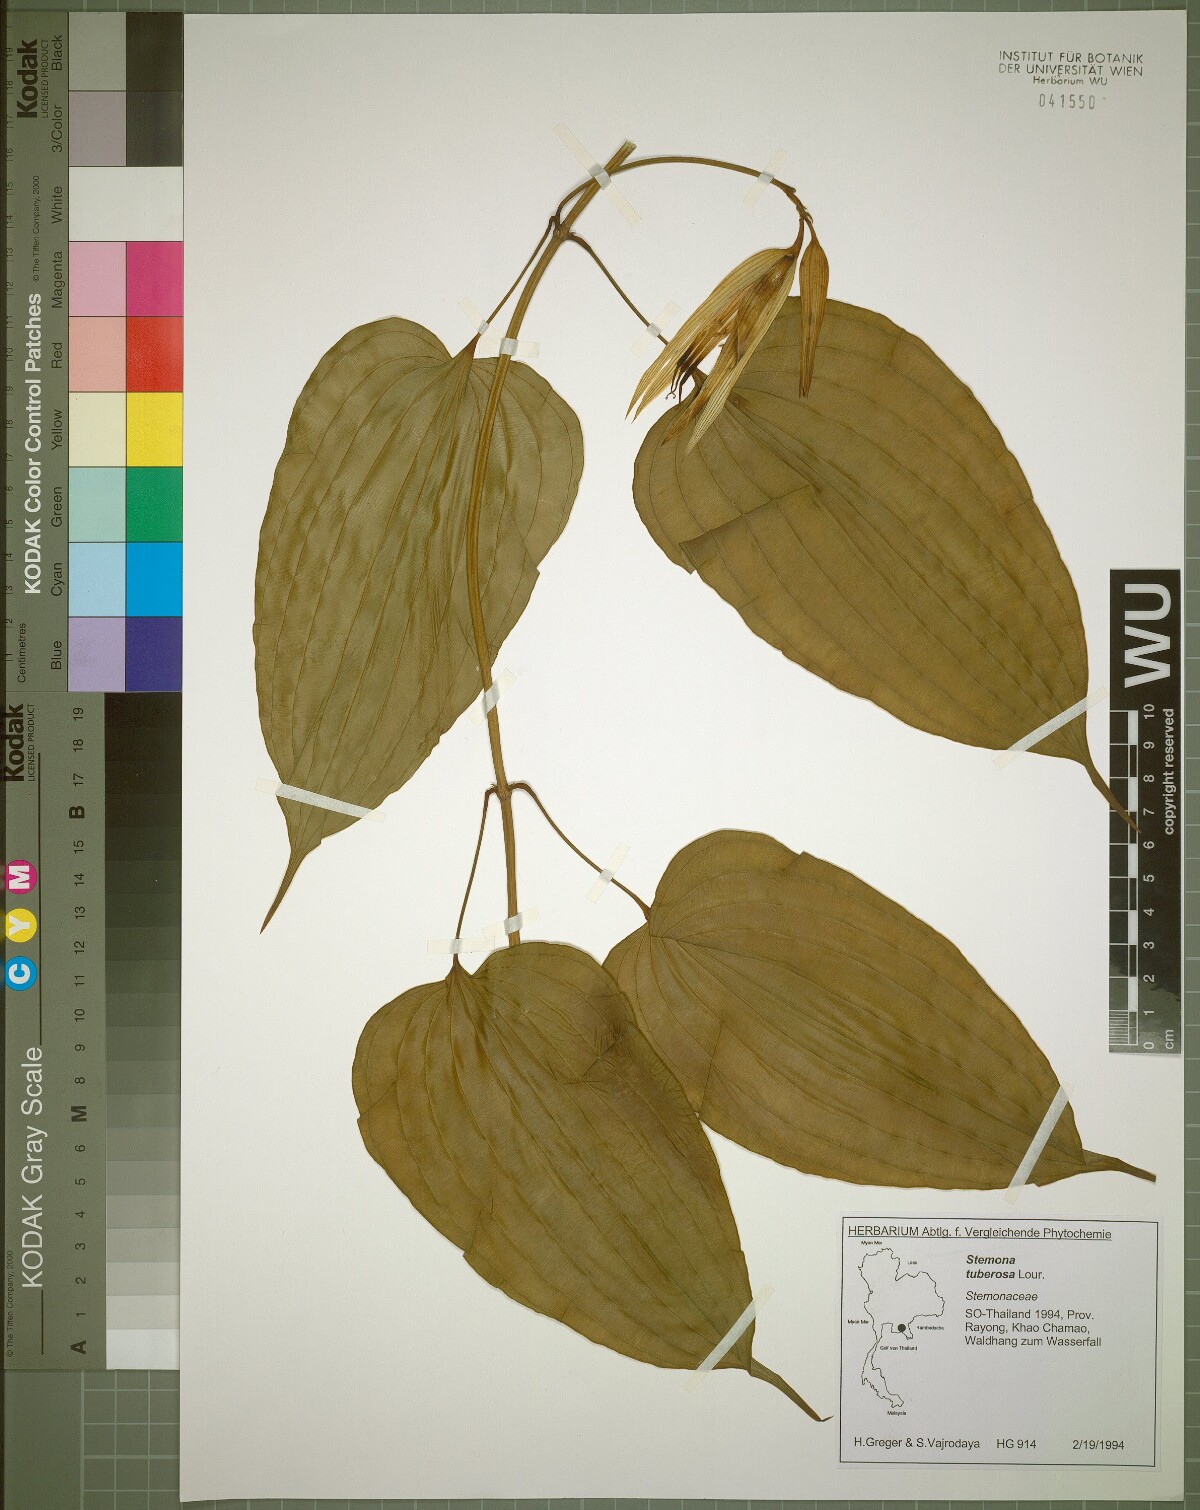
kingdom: Plantae
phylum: Tracheophyta
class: Liliopsida
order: Pandanales
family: Stemonaceae
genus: Stemona
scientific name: Stemona phyllantha
